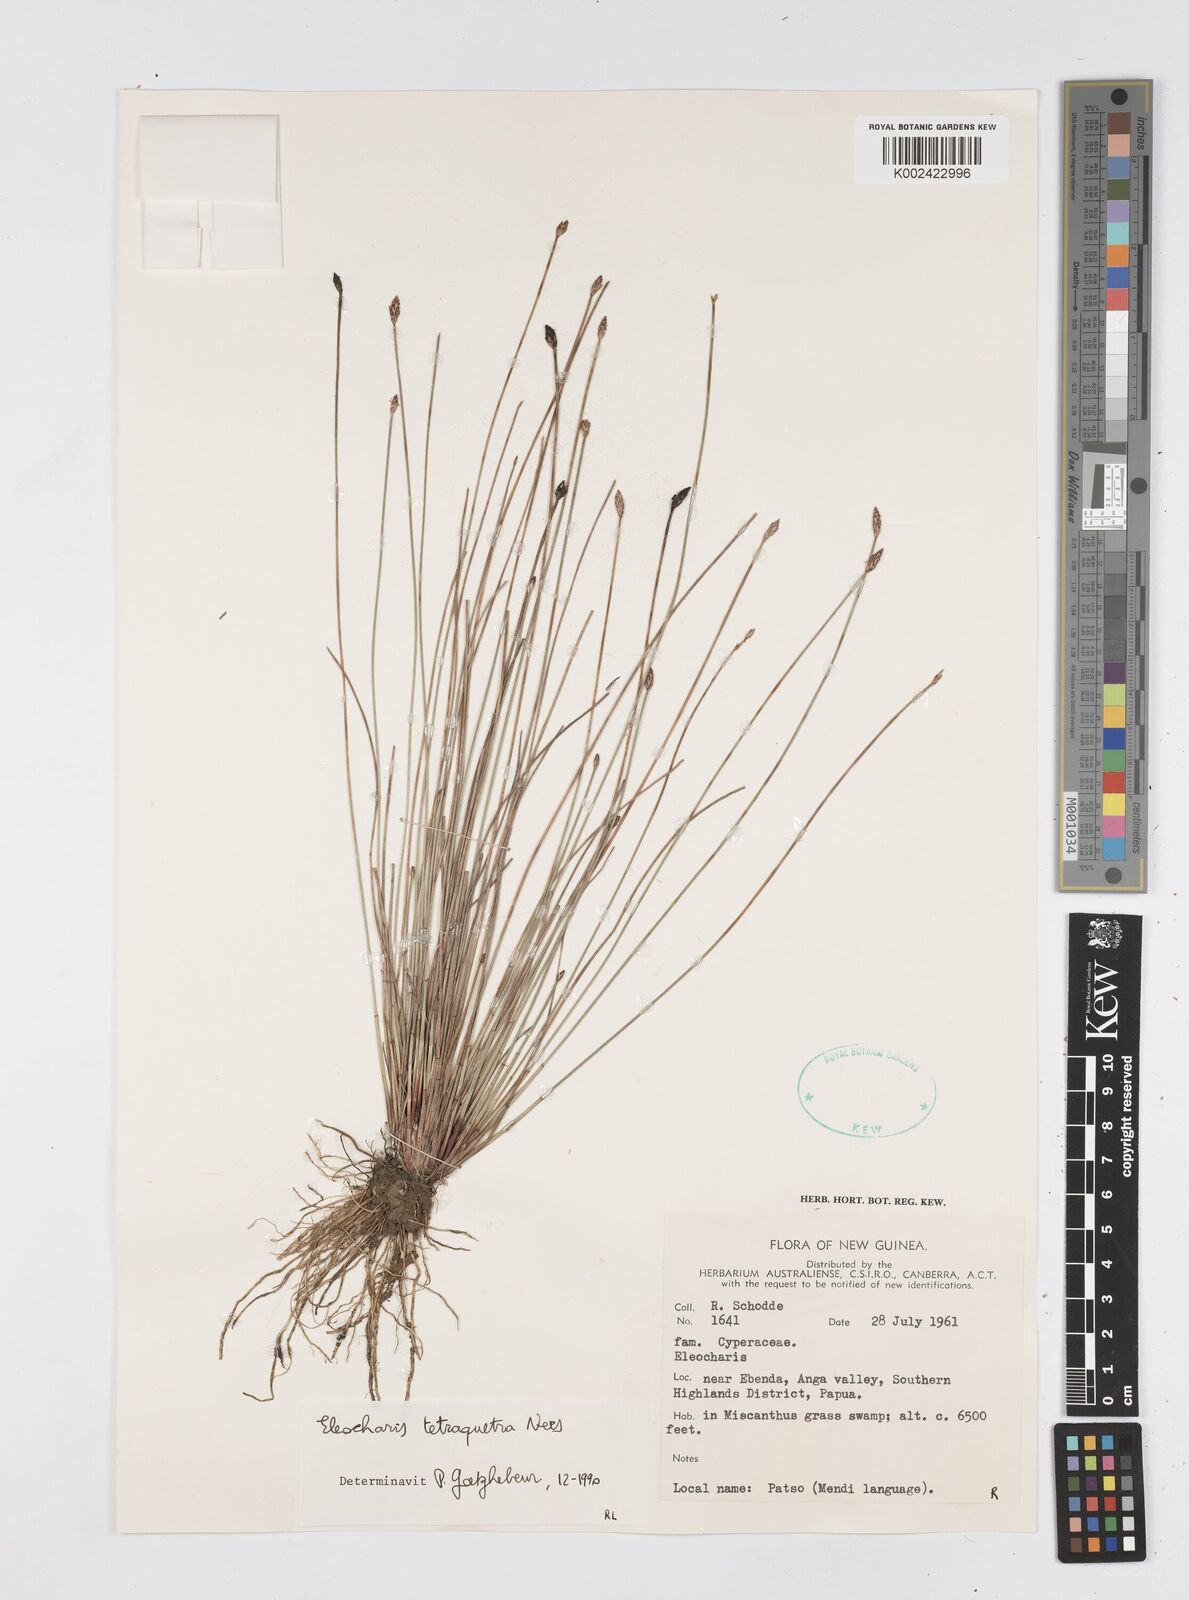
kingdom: Plantae
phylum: Tracheophyta
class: Liliopsida
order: Poales
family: Cyperaceae
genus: Eleocharis
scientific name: Eleocharis tetraquetra
